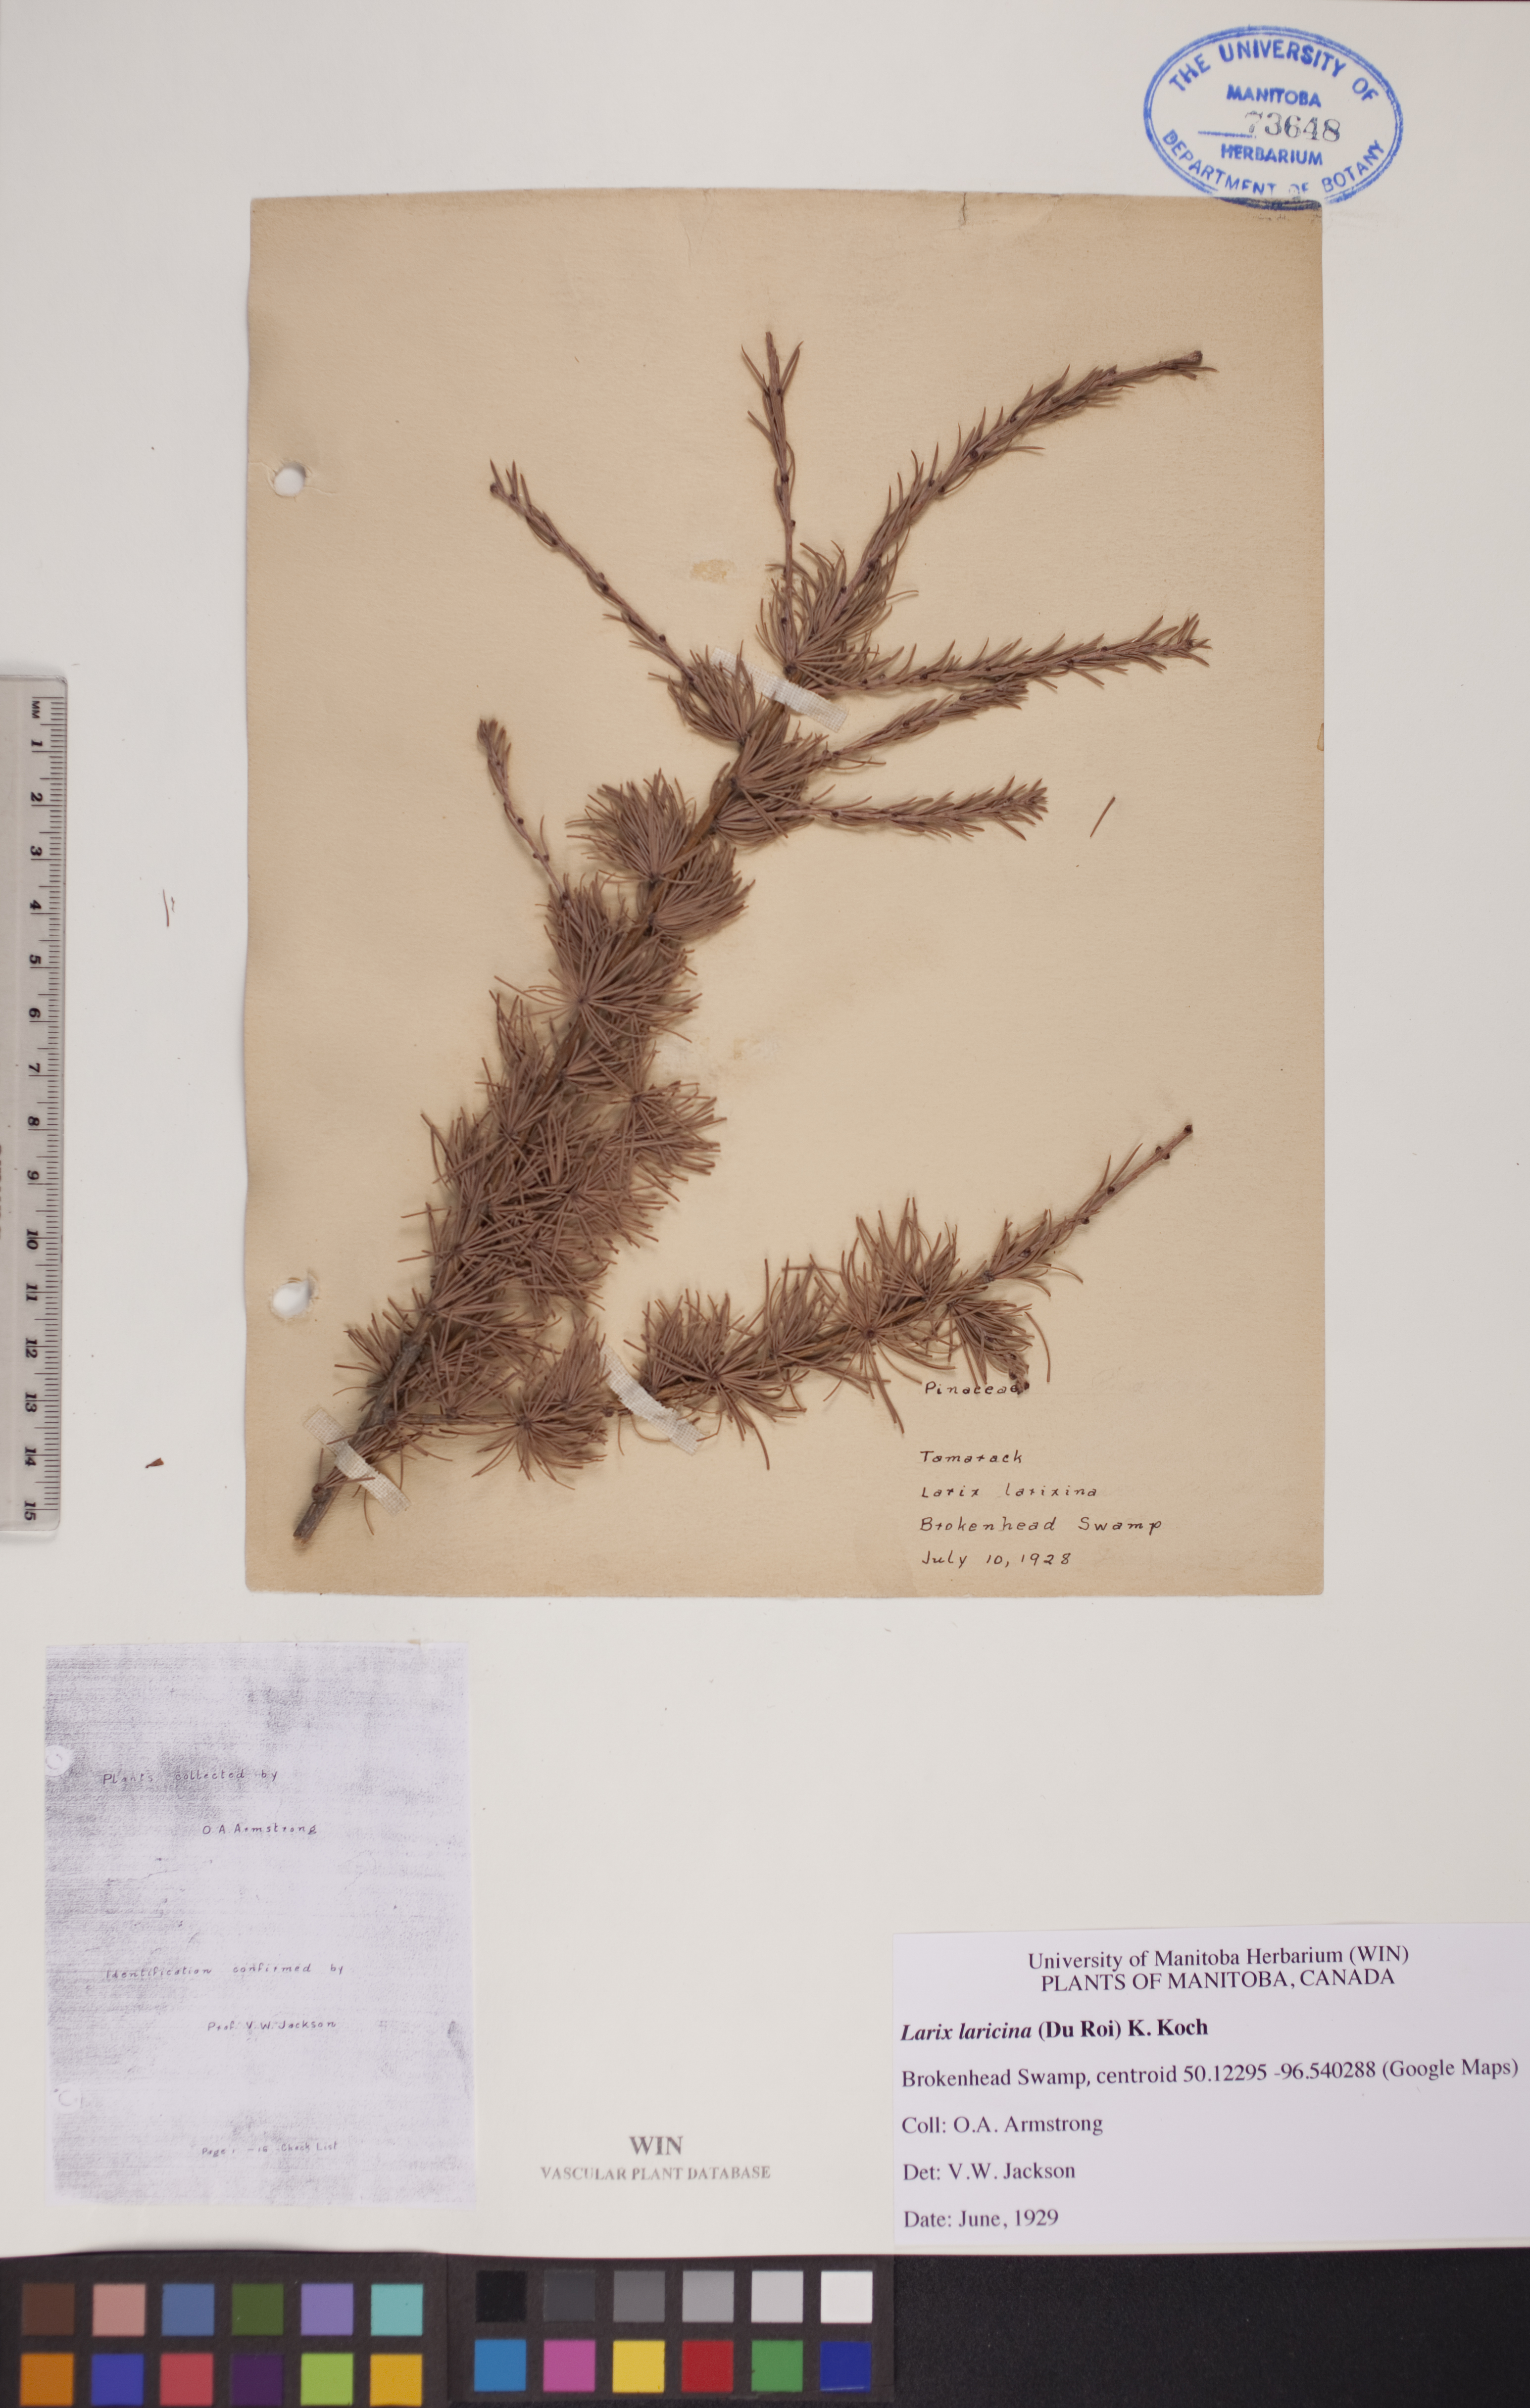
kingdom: Plantae
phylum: Tracheophyta
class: Pinopsida
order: Pinales
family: Pinaceae
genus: Larix
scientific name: Larix laricina
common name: American larch
